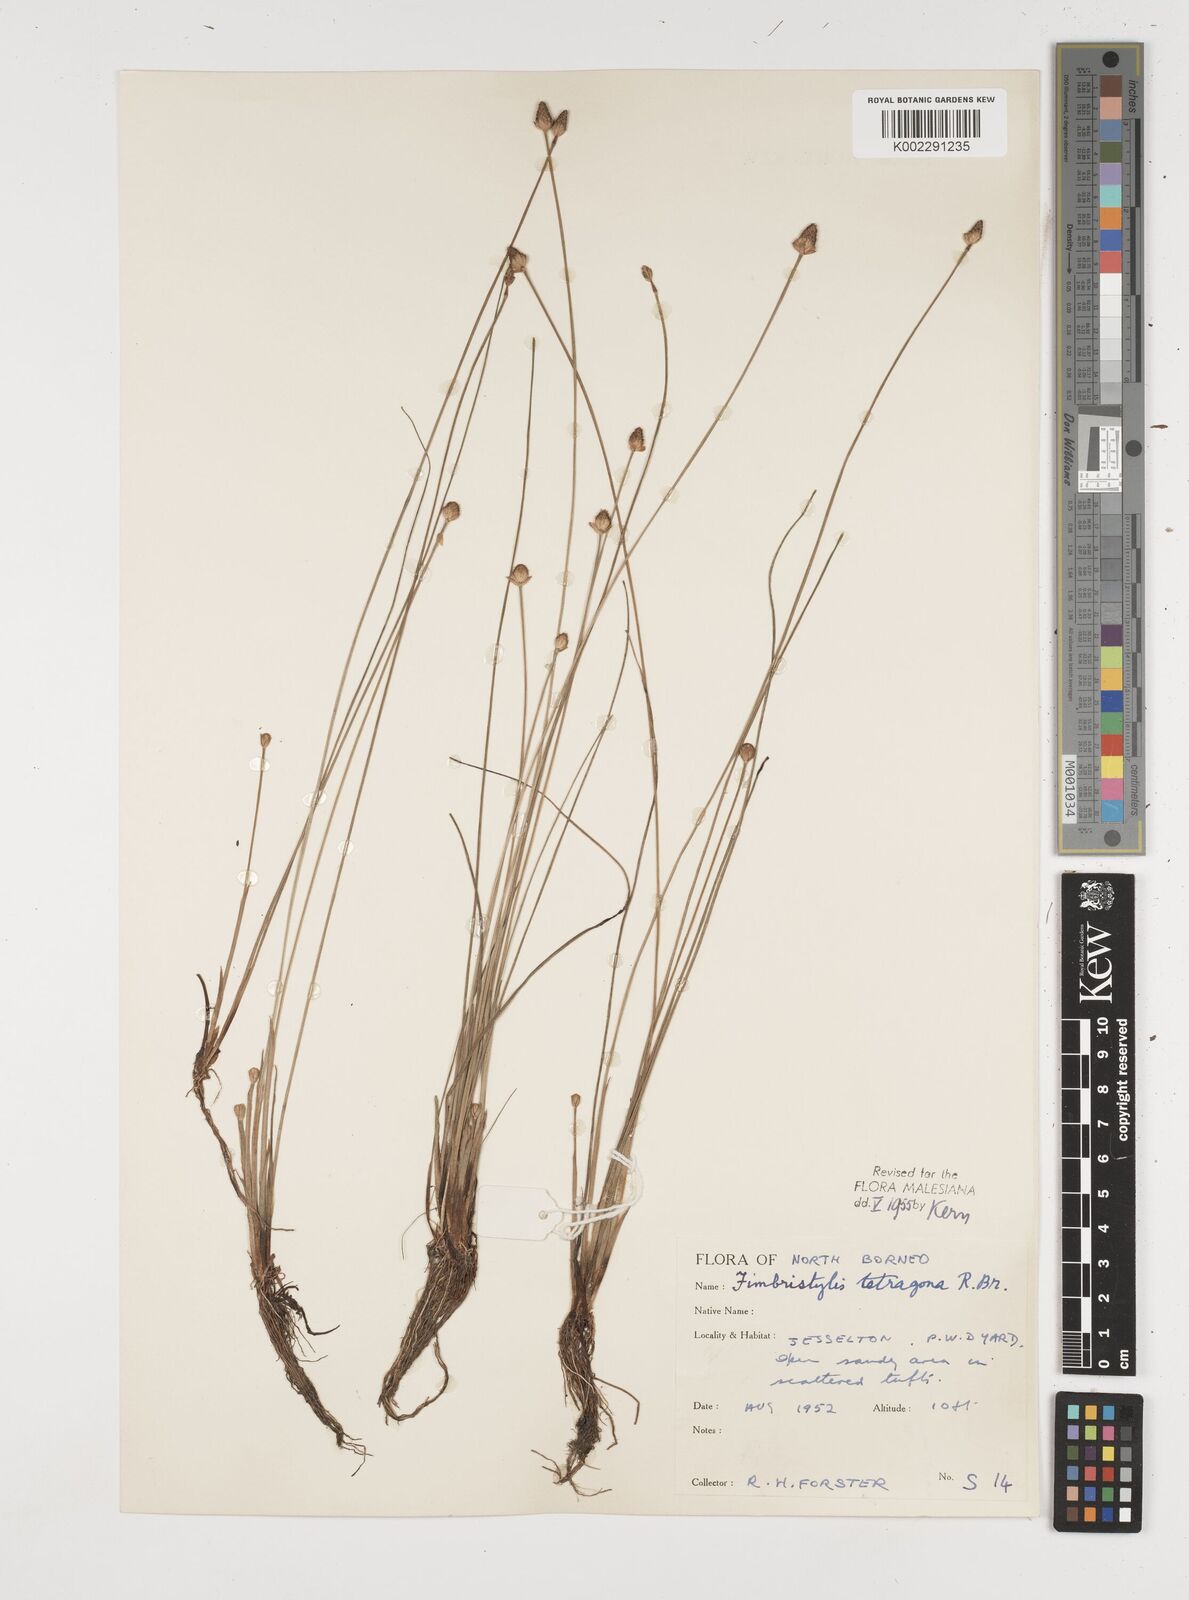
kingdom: Plantae
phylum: Tracheophyta
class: Liliopsida
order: Poales
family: Cyperaceae
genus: Fimbristylis
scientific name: Fimbristylis tetragona
